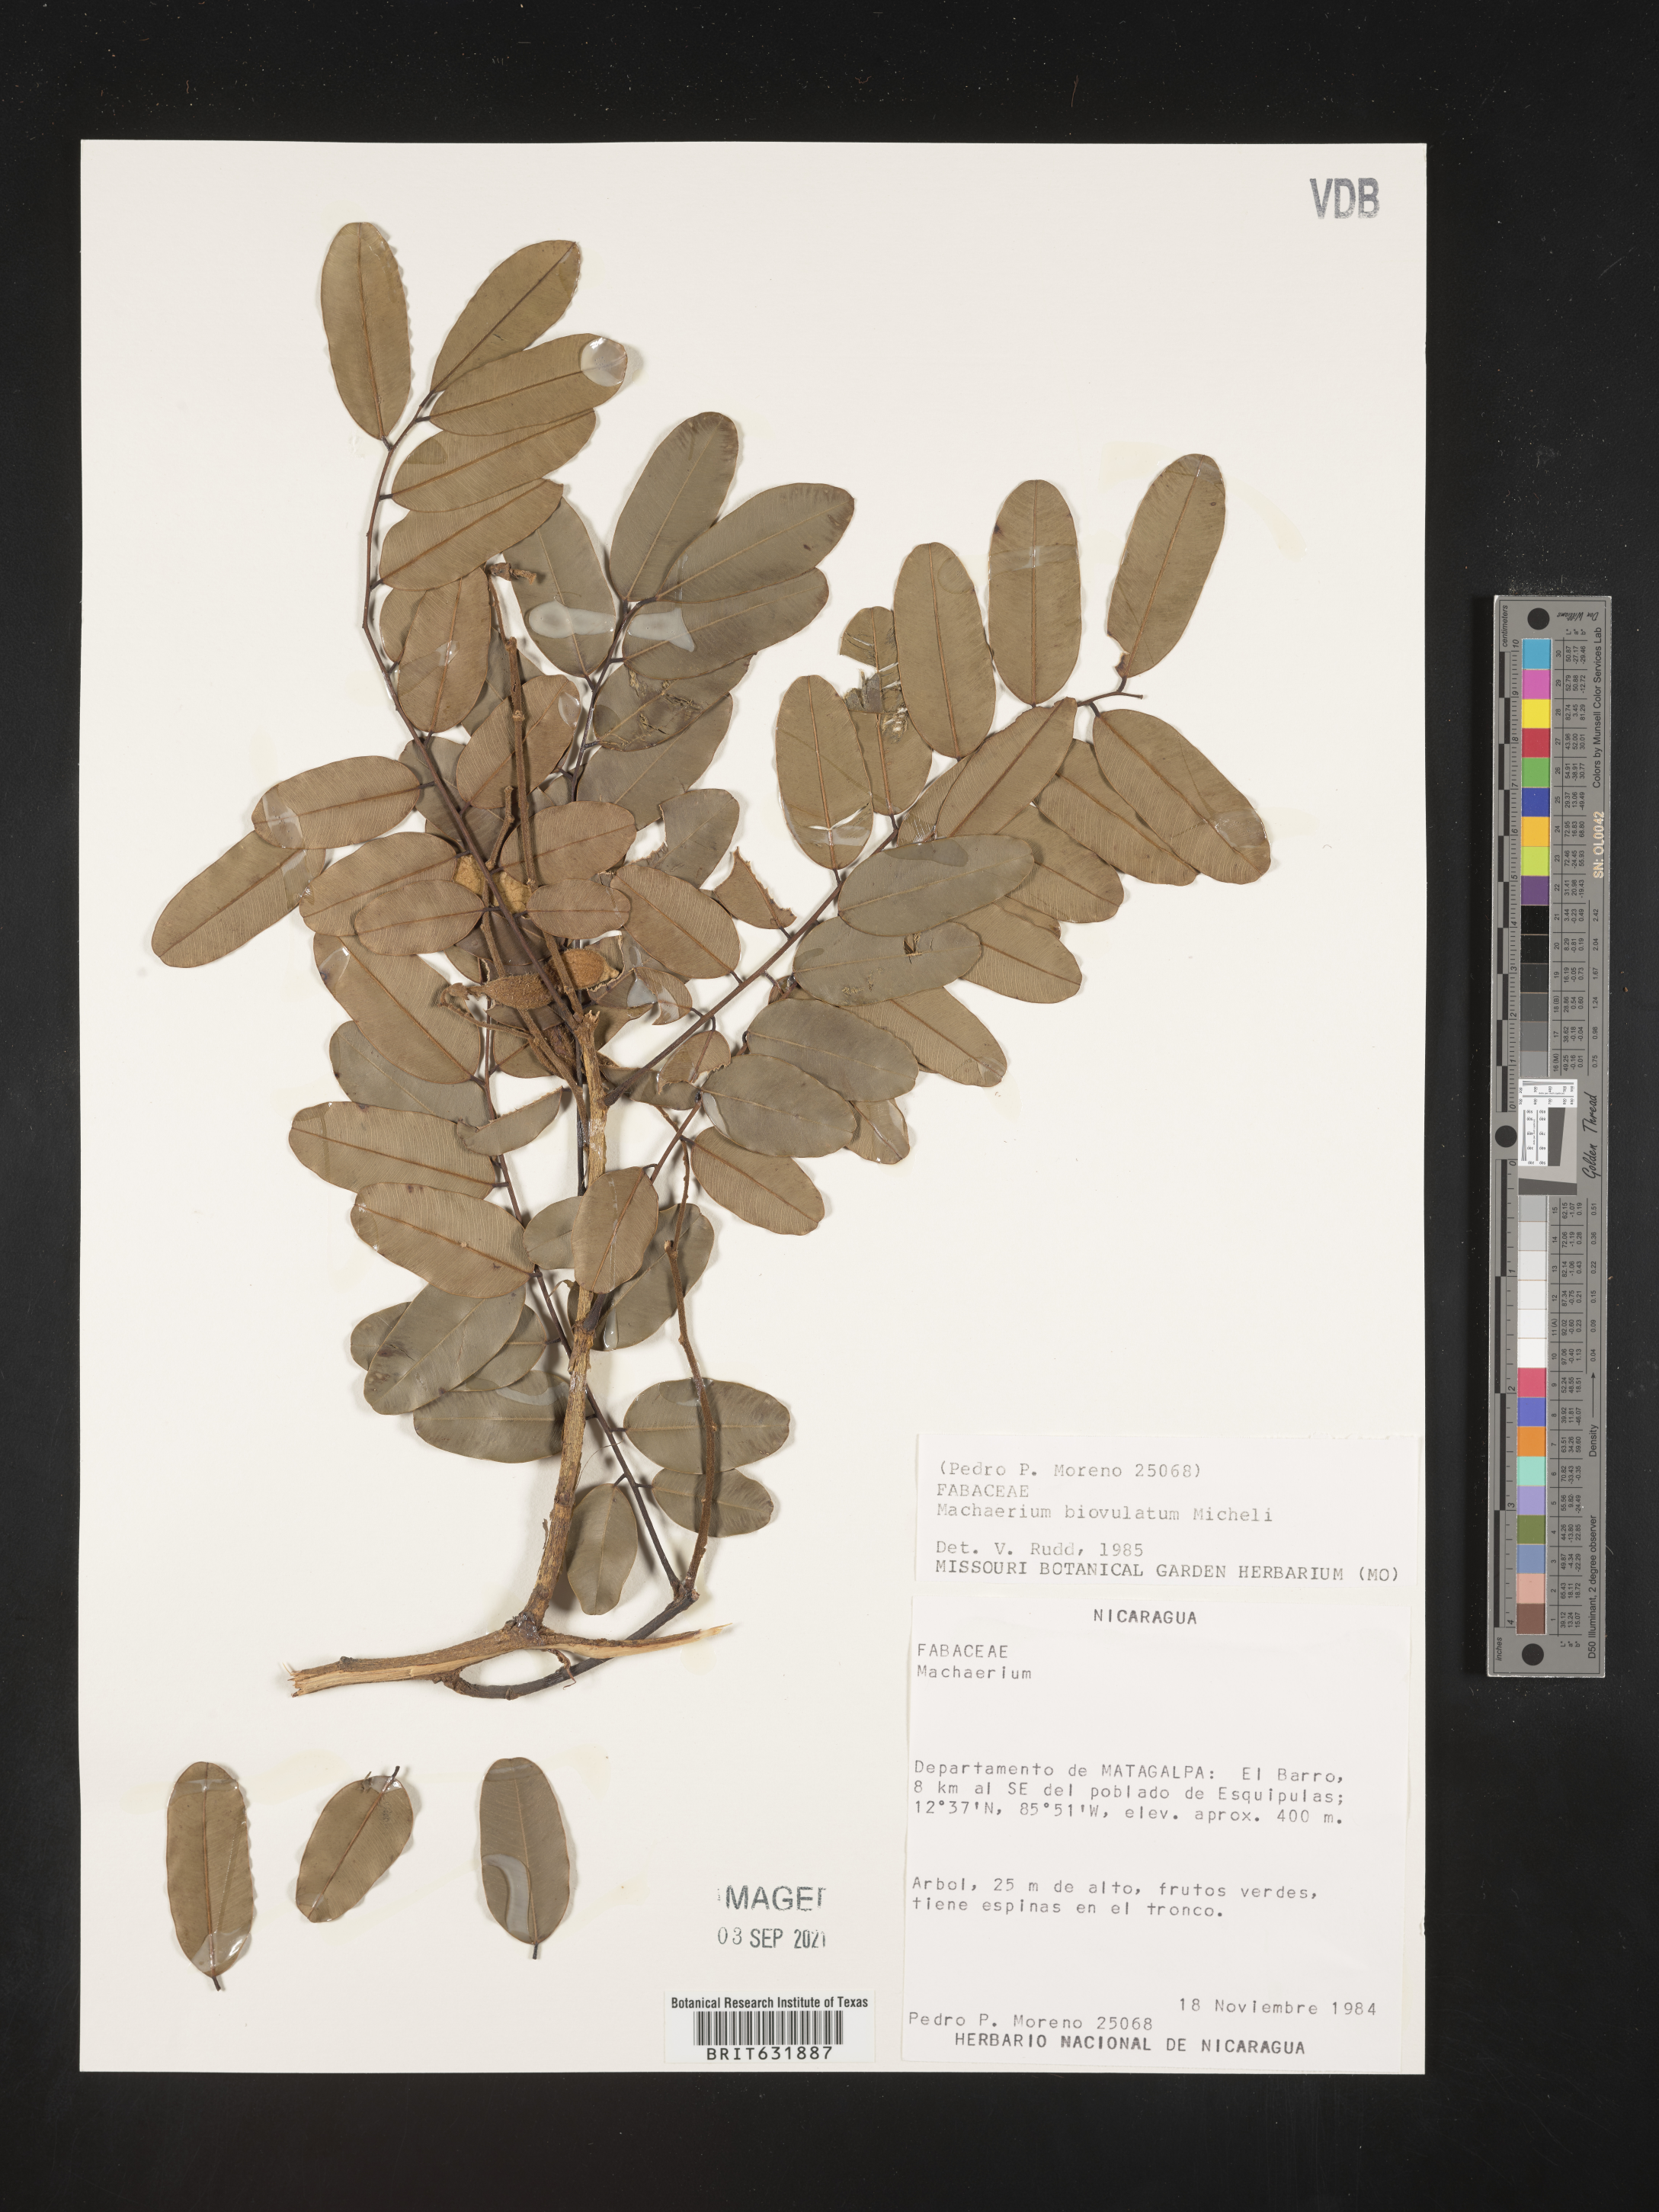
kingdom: Plantae
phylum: Tracheophyta
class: Magnoliopsida
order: Fabales
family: Fabaceae
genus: Machaerium
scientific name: Machaerium
